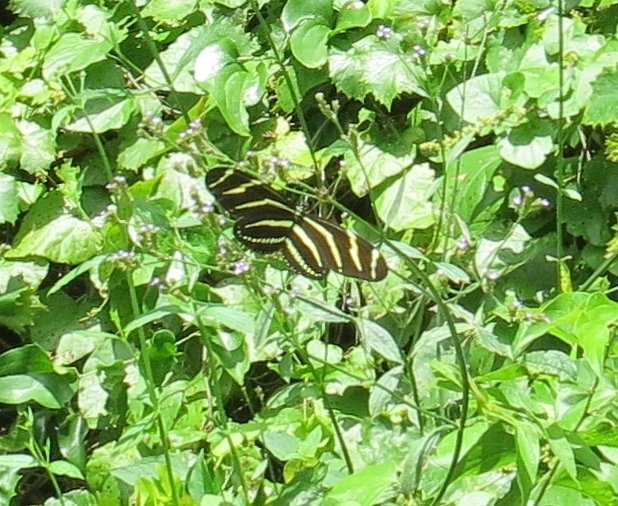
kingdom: Animalia
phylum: Arthropoda
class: Insecta
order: Lepidoptera
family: Nymphalidae
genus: Heliconius
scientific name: Heliconius charithonia
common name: Zebra Longwing
